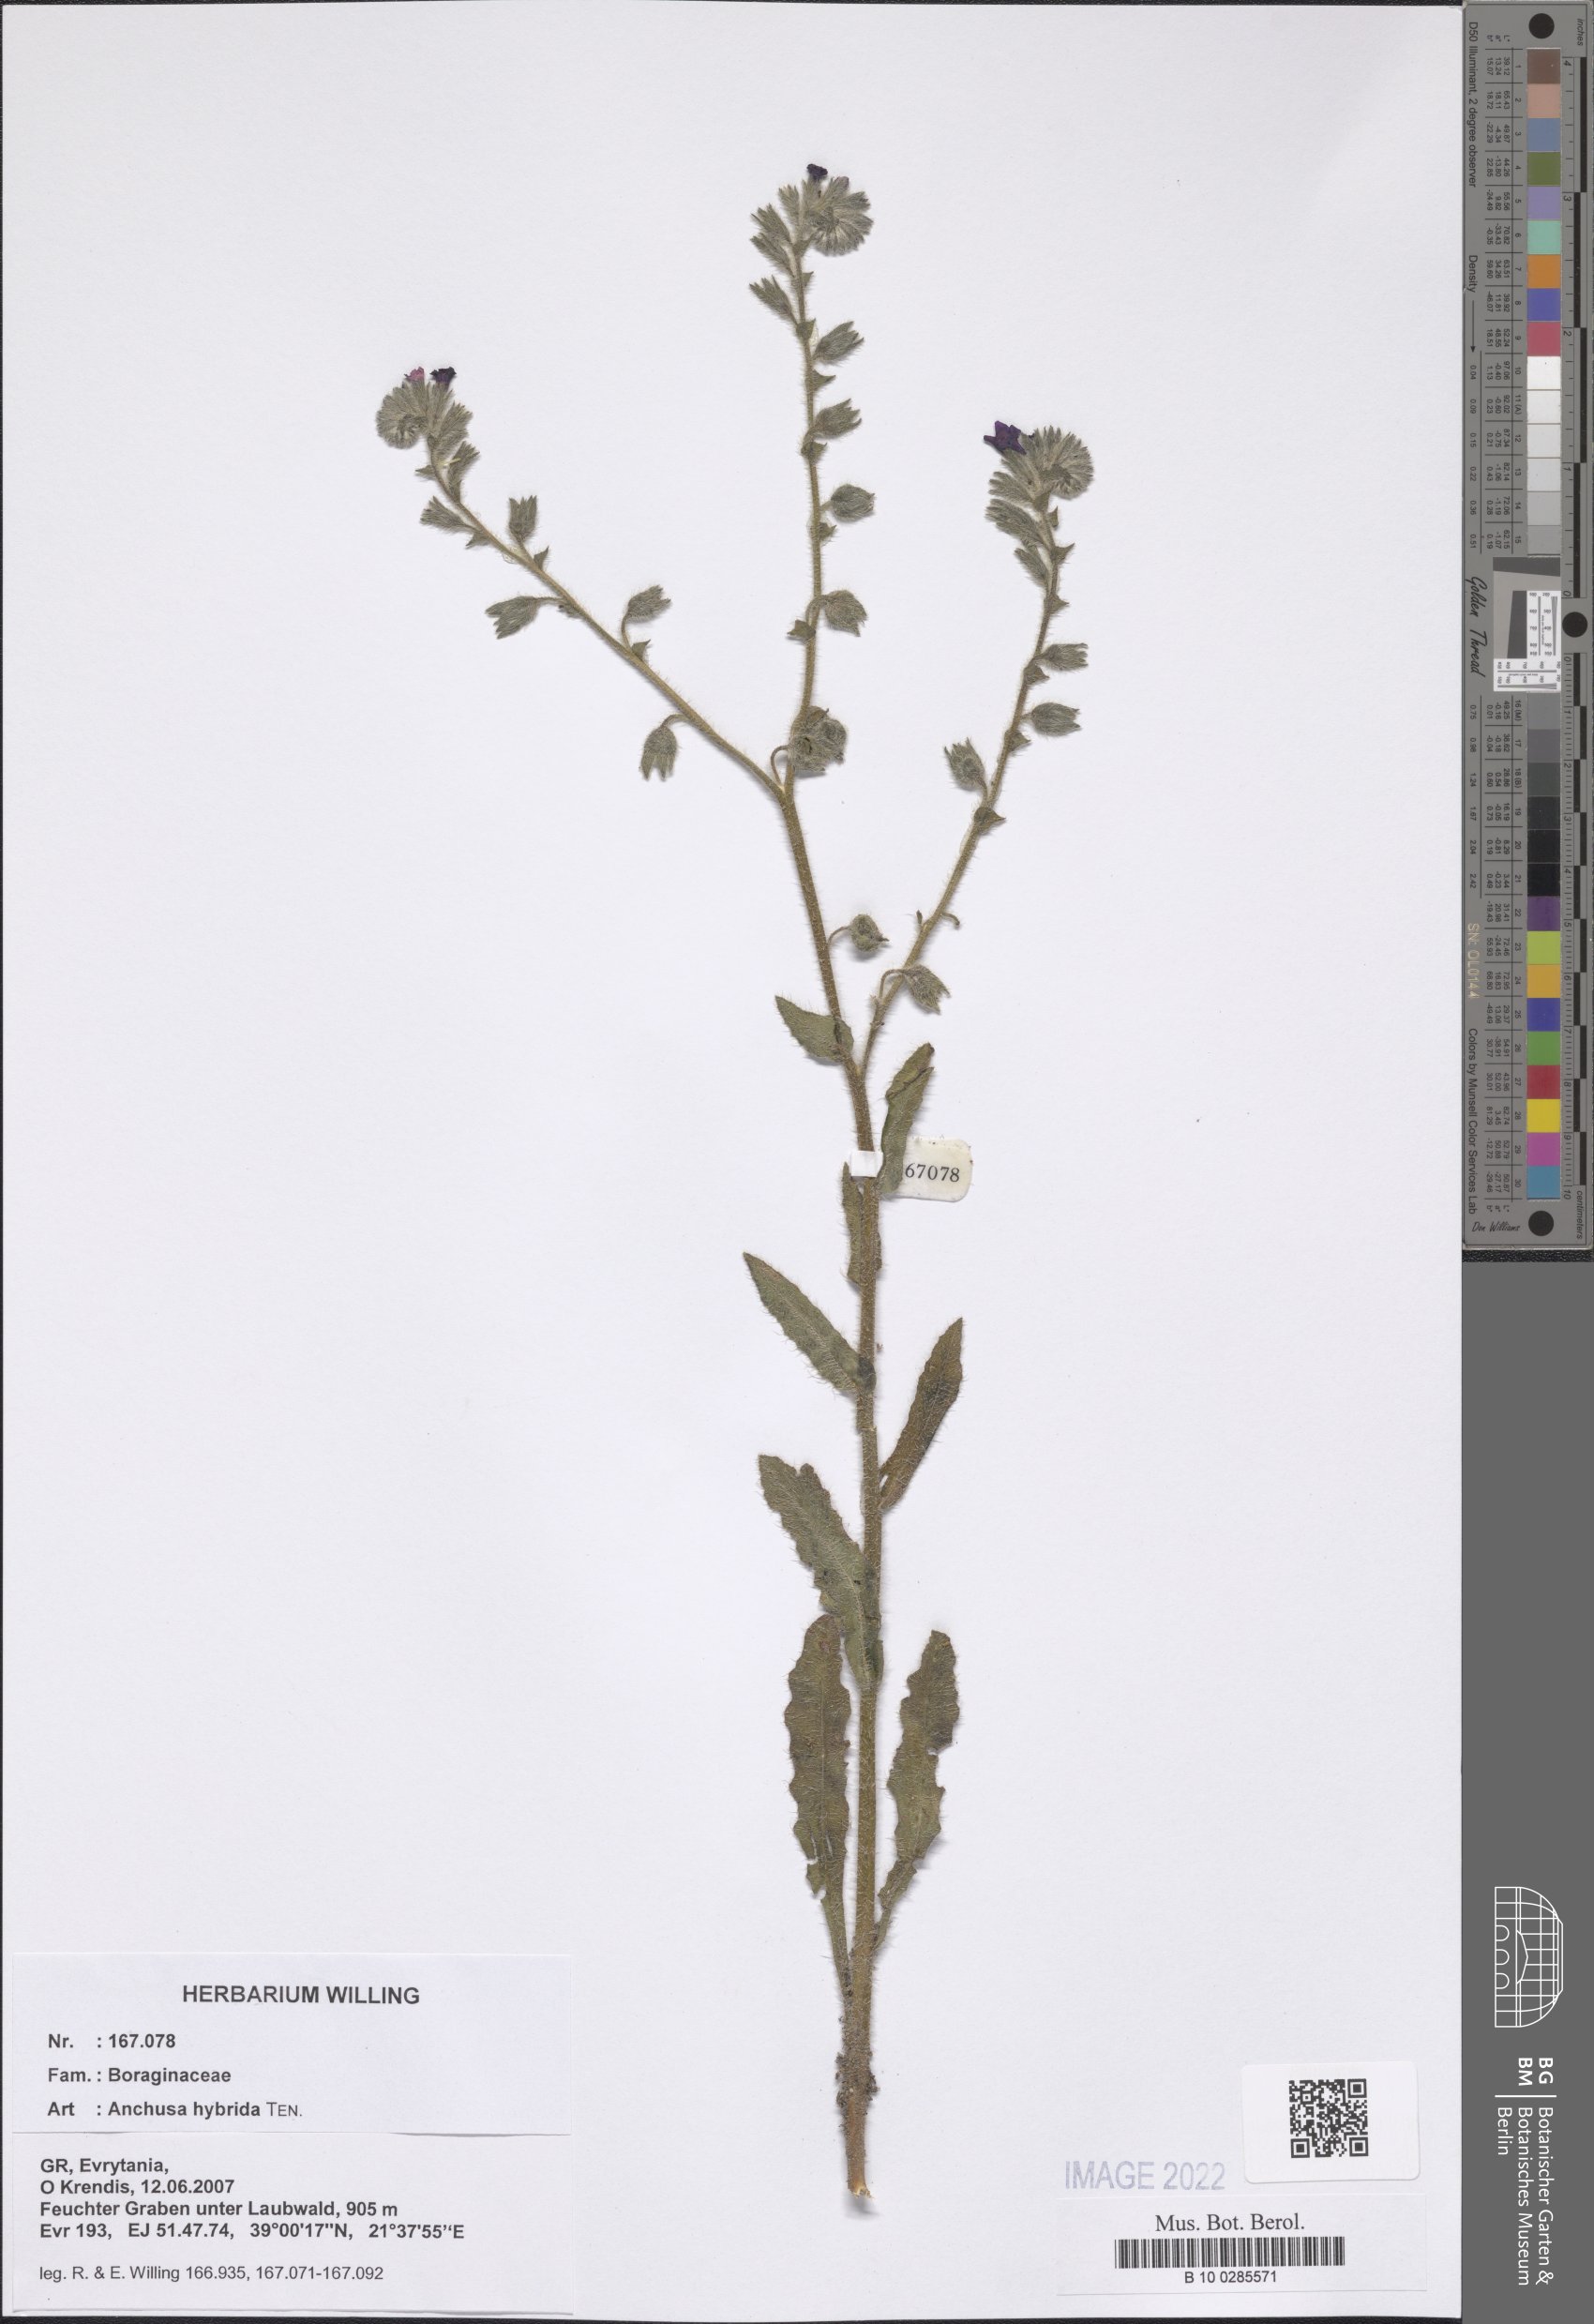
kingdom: Plantae
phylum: Tracheophyta
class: Magnoliopsida
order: Boraginales
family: Boraginaceae
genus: Anchusa
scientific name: Anchusa hybrida
